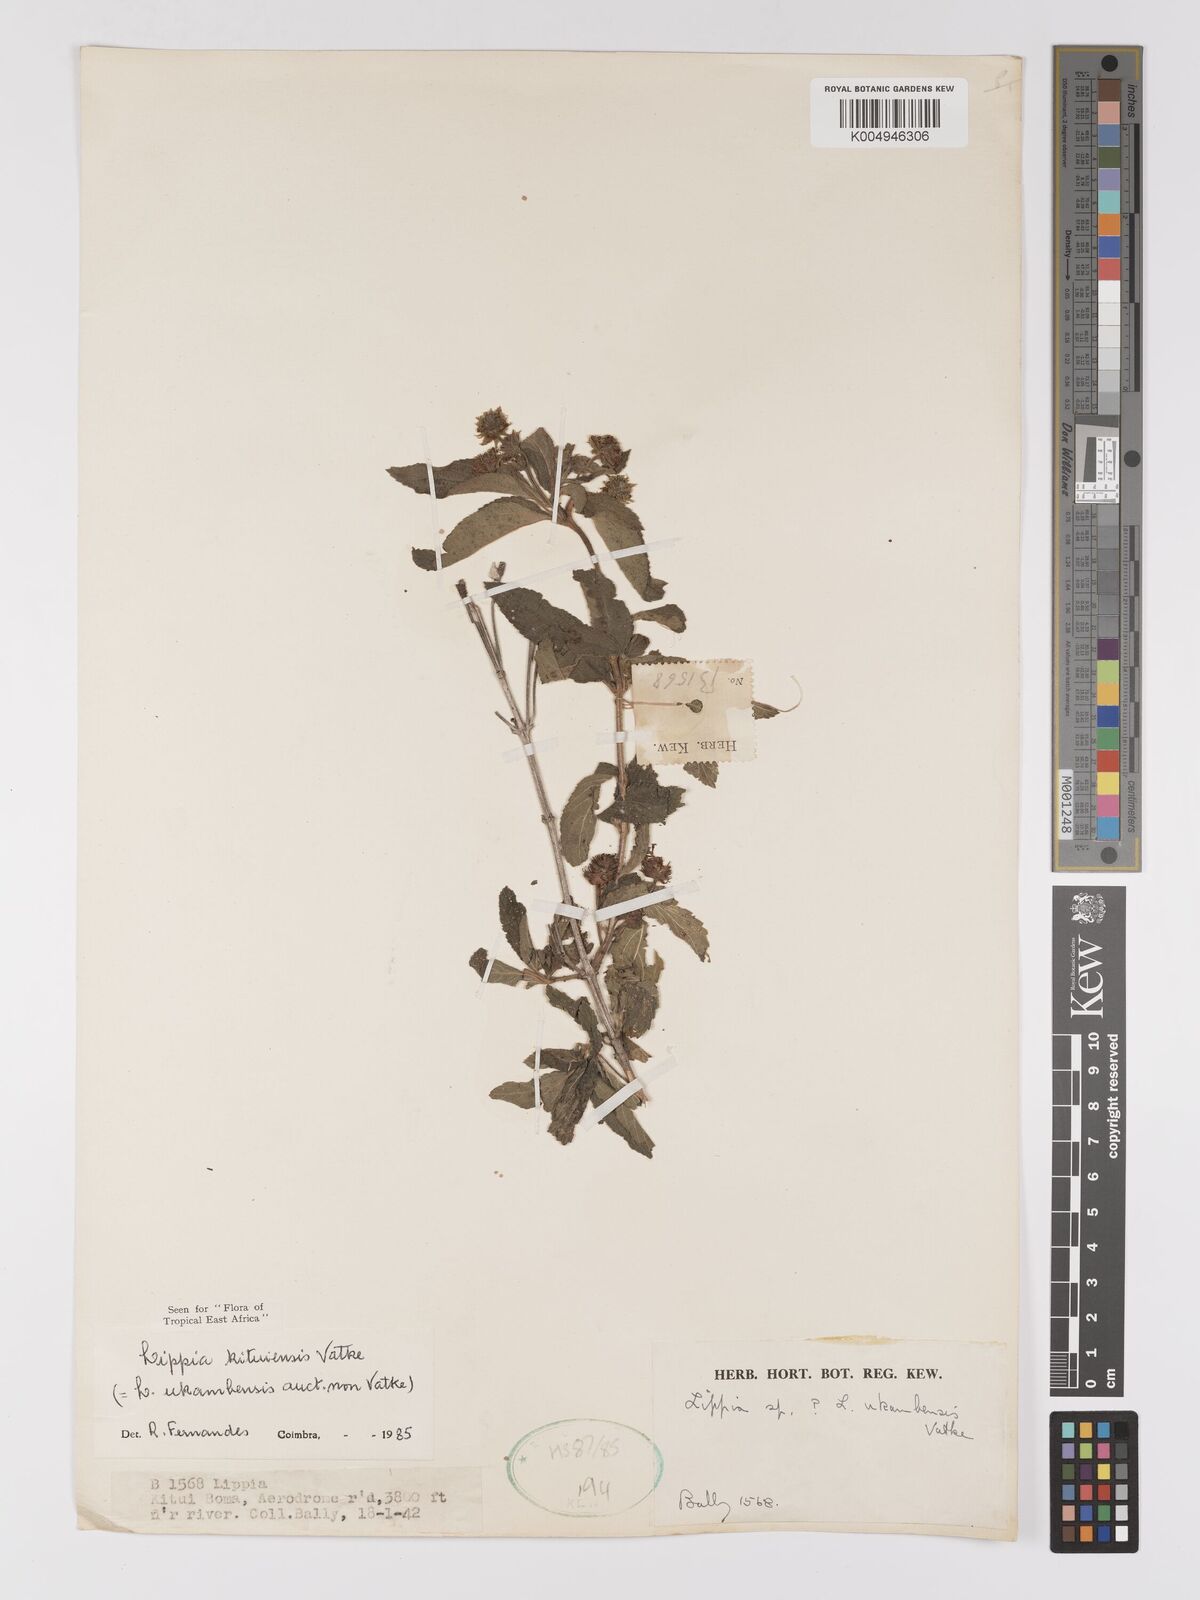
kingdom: Plantae
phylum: Tracheophyta
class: Magnoliopsida
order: Lamiales
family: Verbenaceae
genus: Lippia
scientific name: Lippia kituiensis
